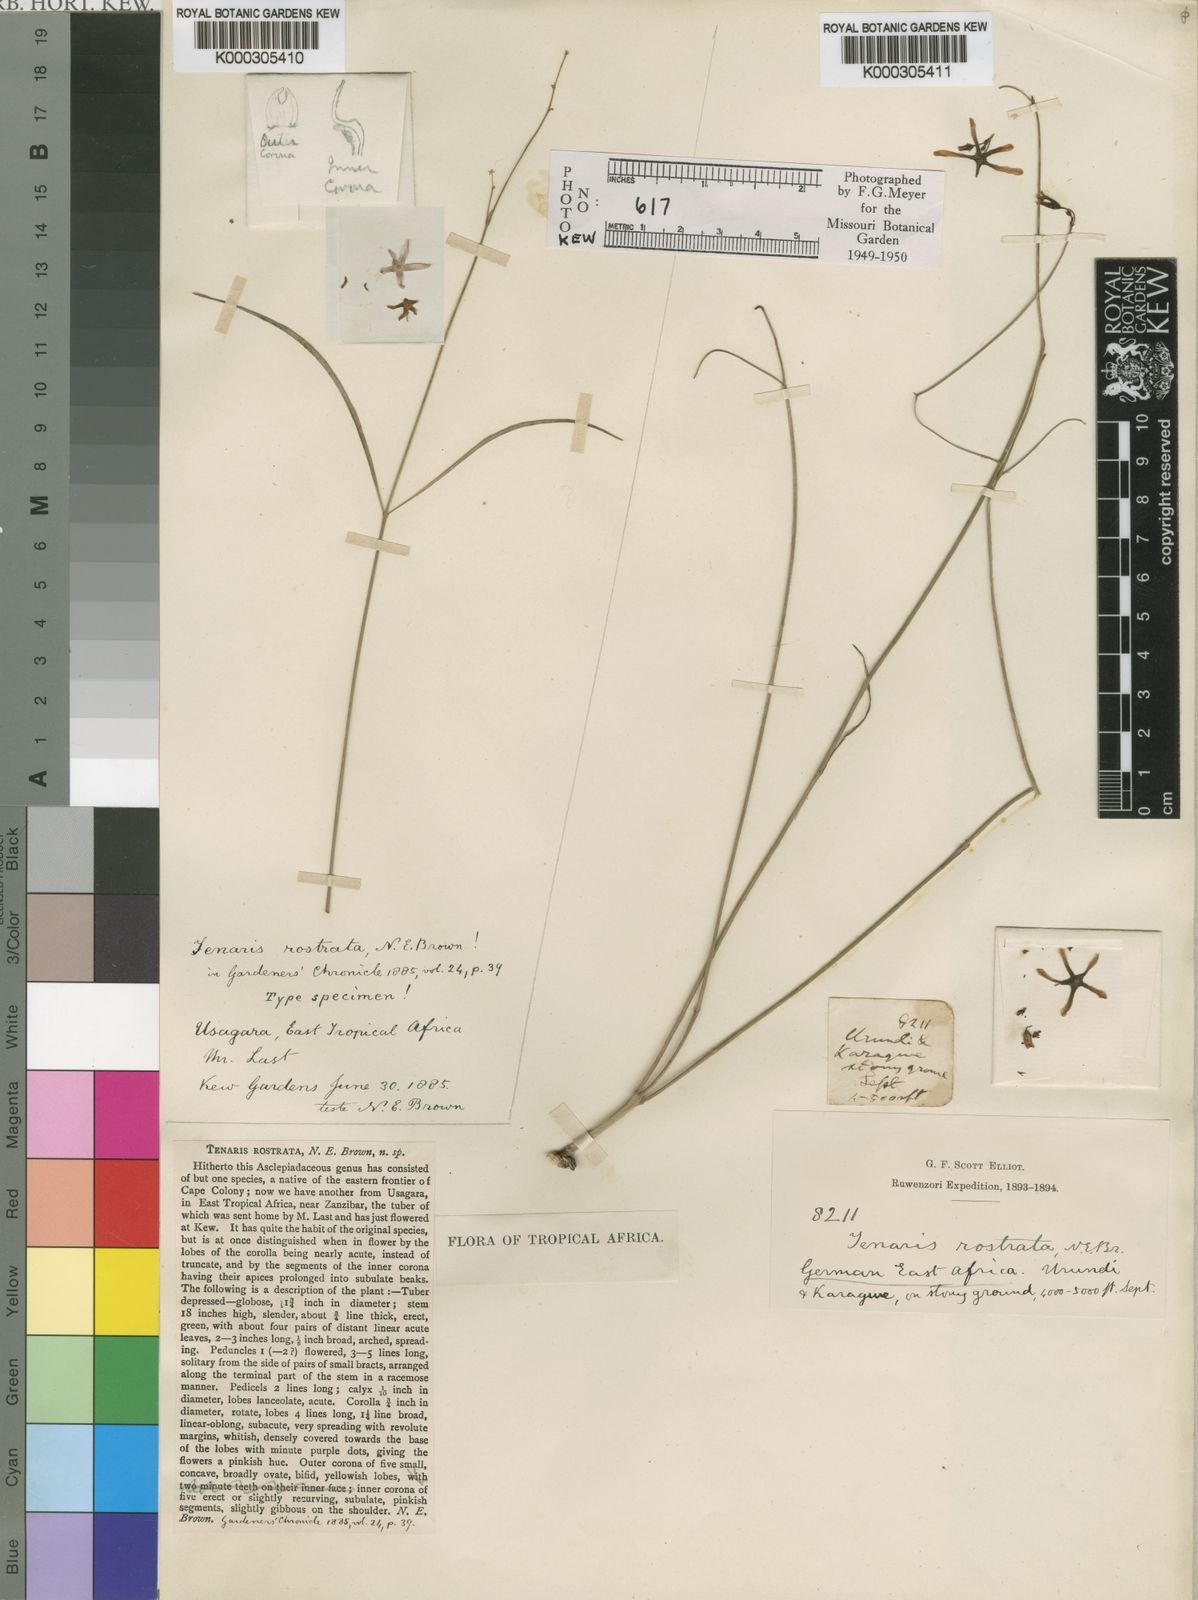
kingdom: Plantae
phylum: Tracheophyta
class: Magnoliopsida
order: Gentianales
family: Apocynaceae
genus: Ceropegia
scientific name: Ceropegia rubella
